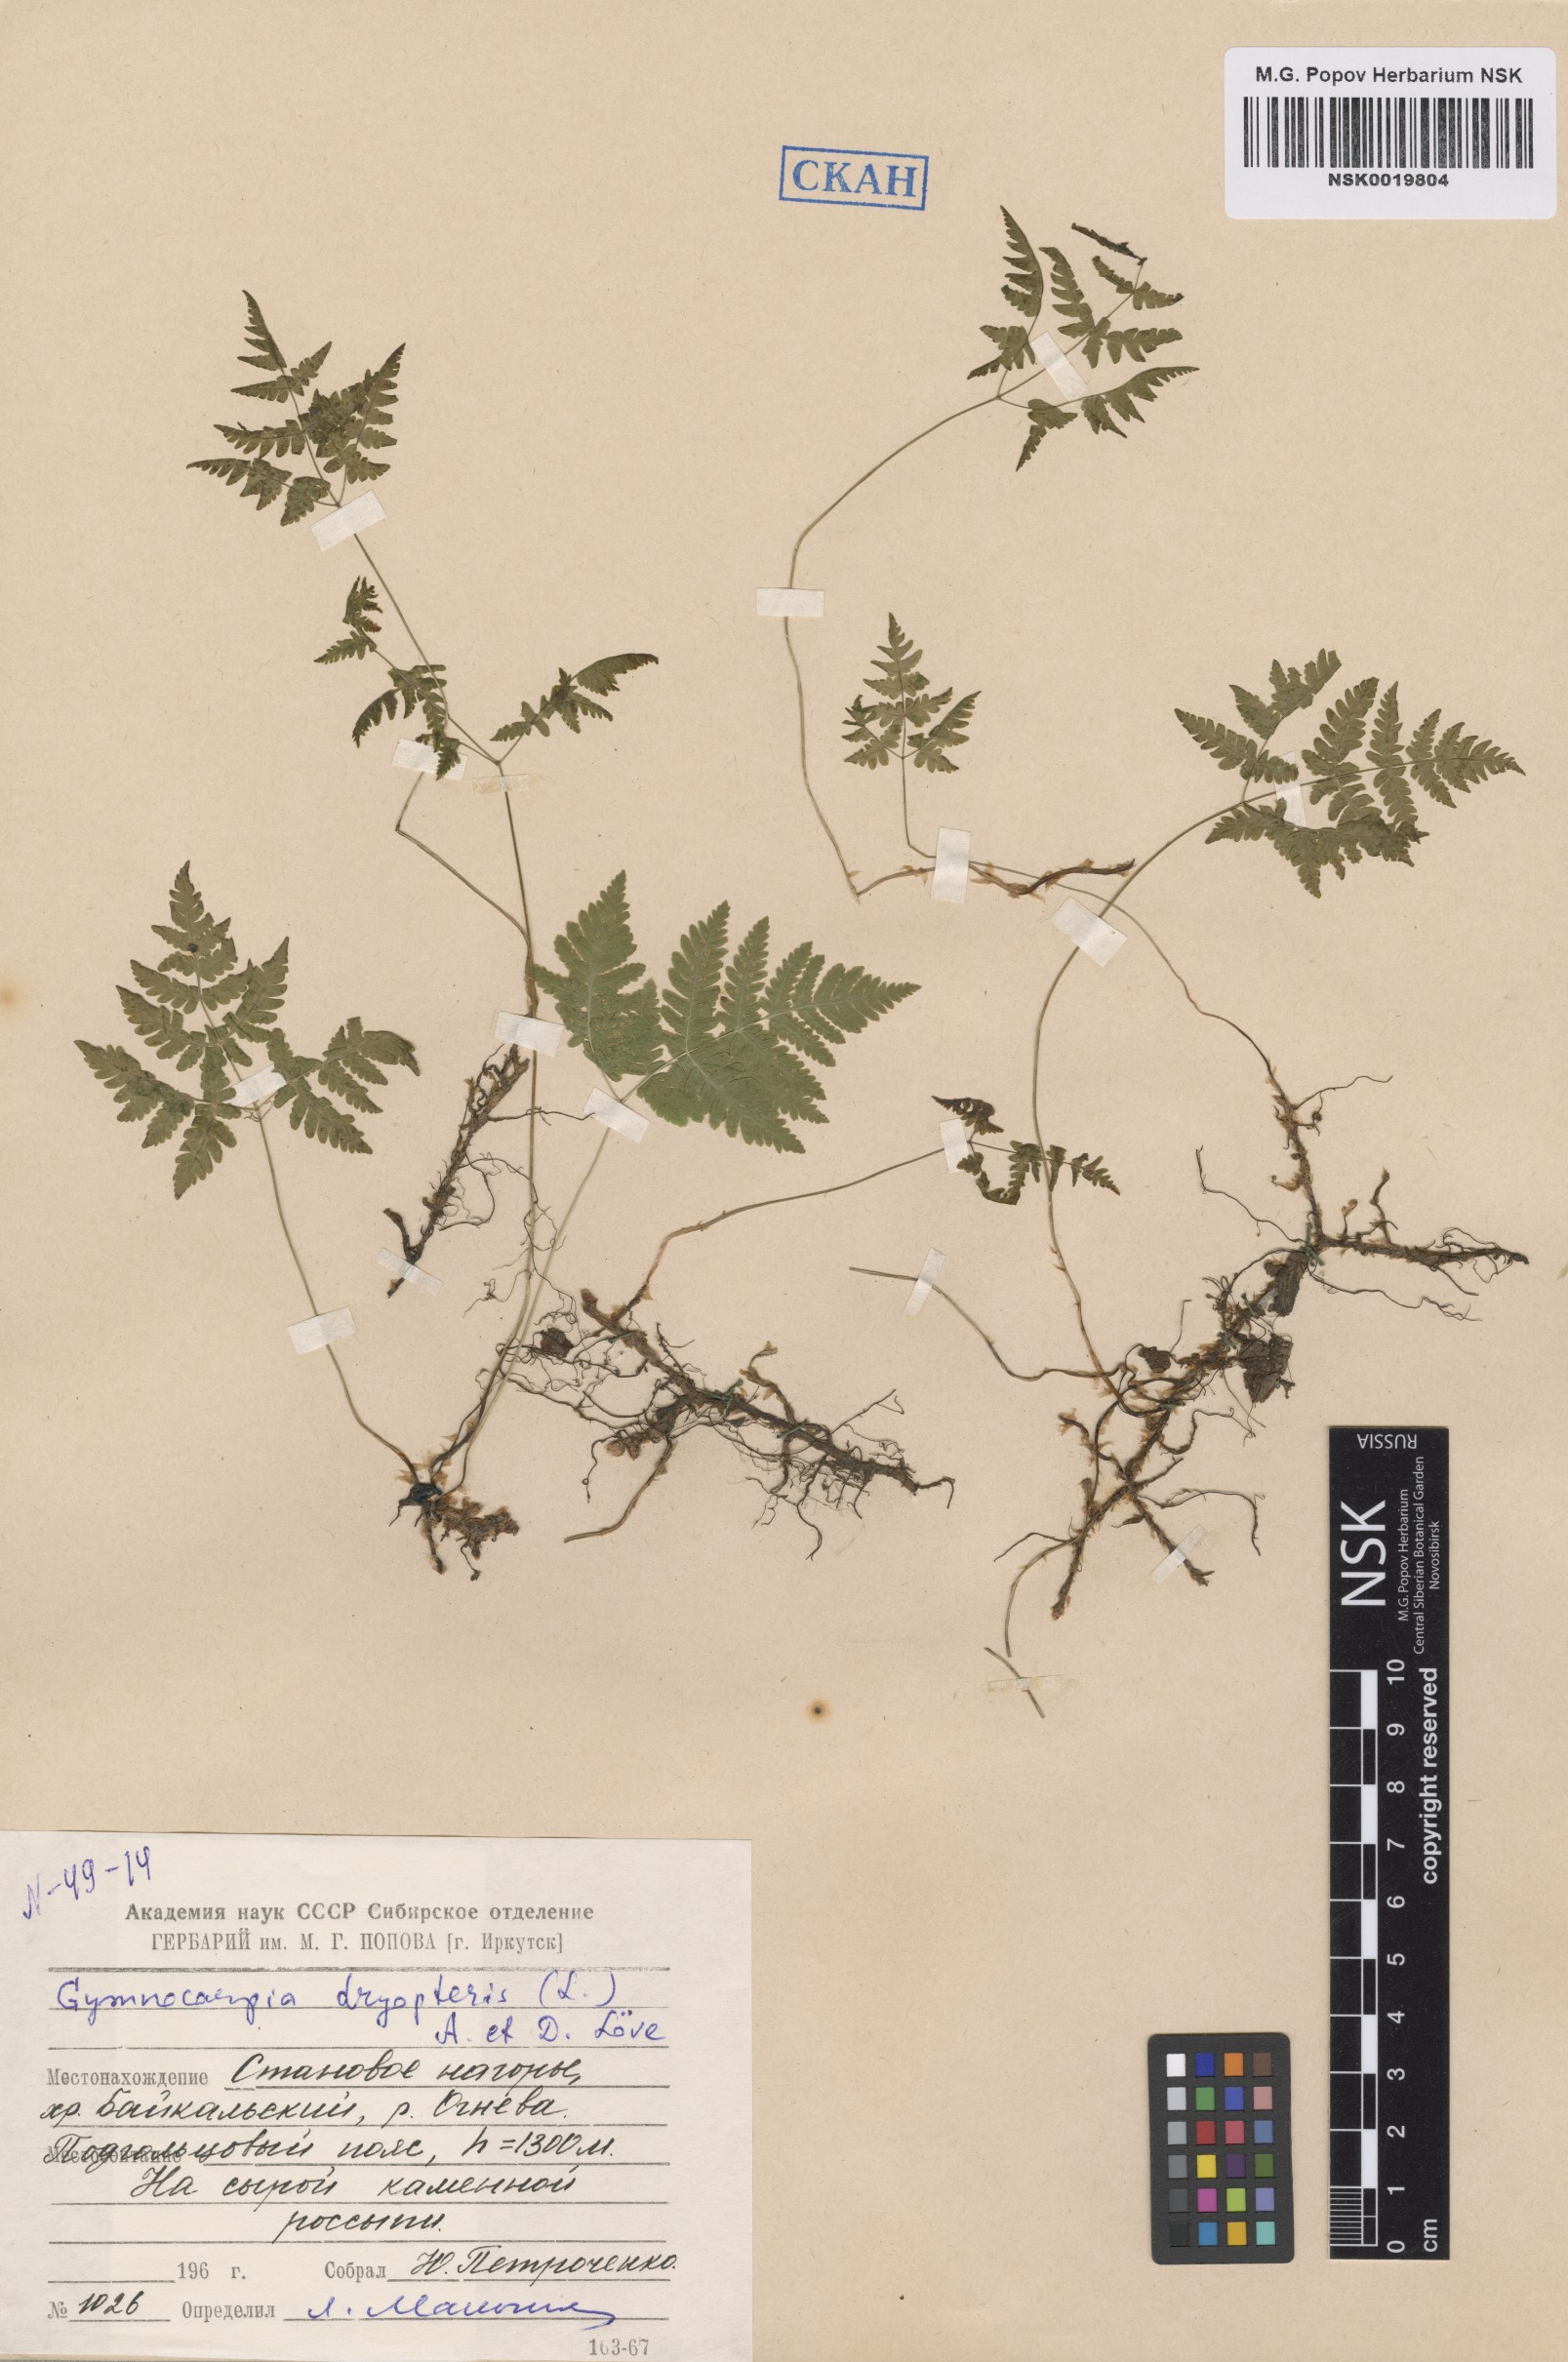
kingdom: Plantae
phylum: Tracheophyta
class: Polypodiopsida
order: Polypodiales
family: Cystopteridaceae
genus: Gymnocarpium
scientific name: Gymnocarpium dryopteris
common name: Oak fern
